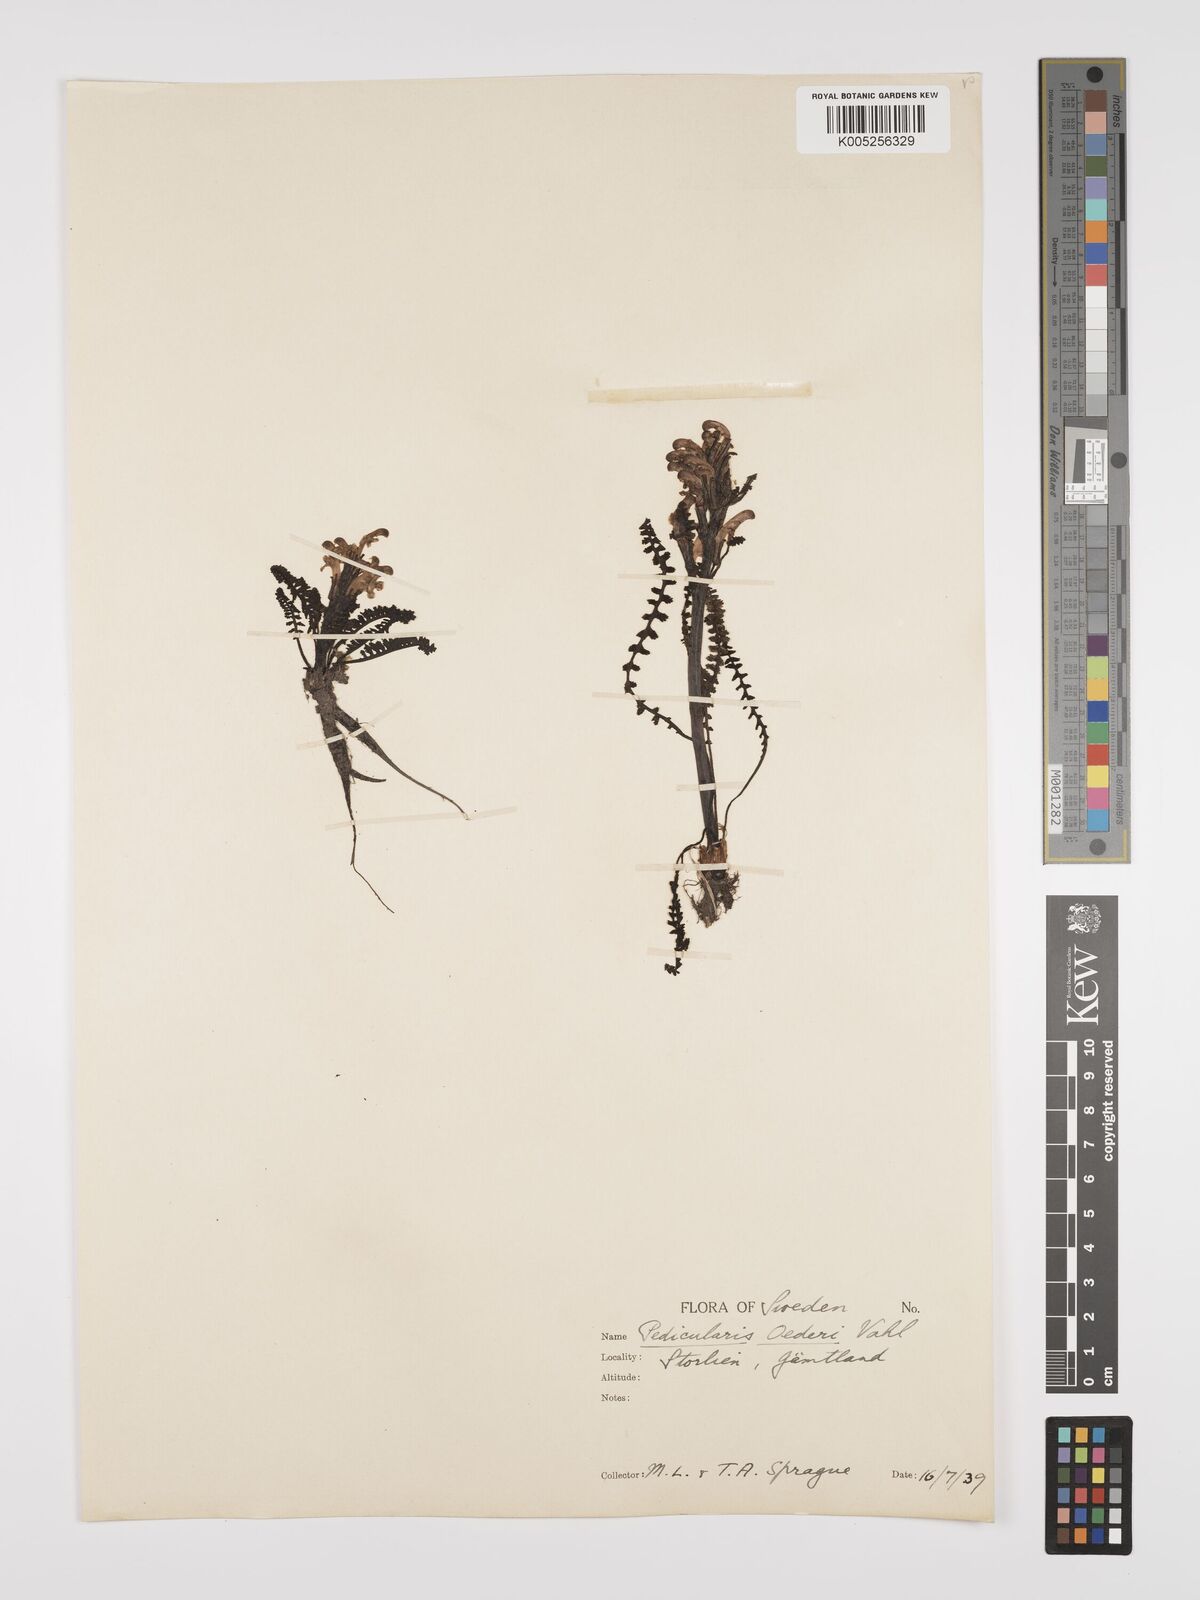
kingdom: Plantae
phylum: Tracheophyta
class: Magnoliopsida
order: Lamiales
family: Orobanchaceae
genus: Pedicularis
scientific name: Pedicularis oederi
